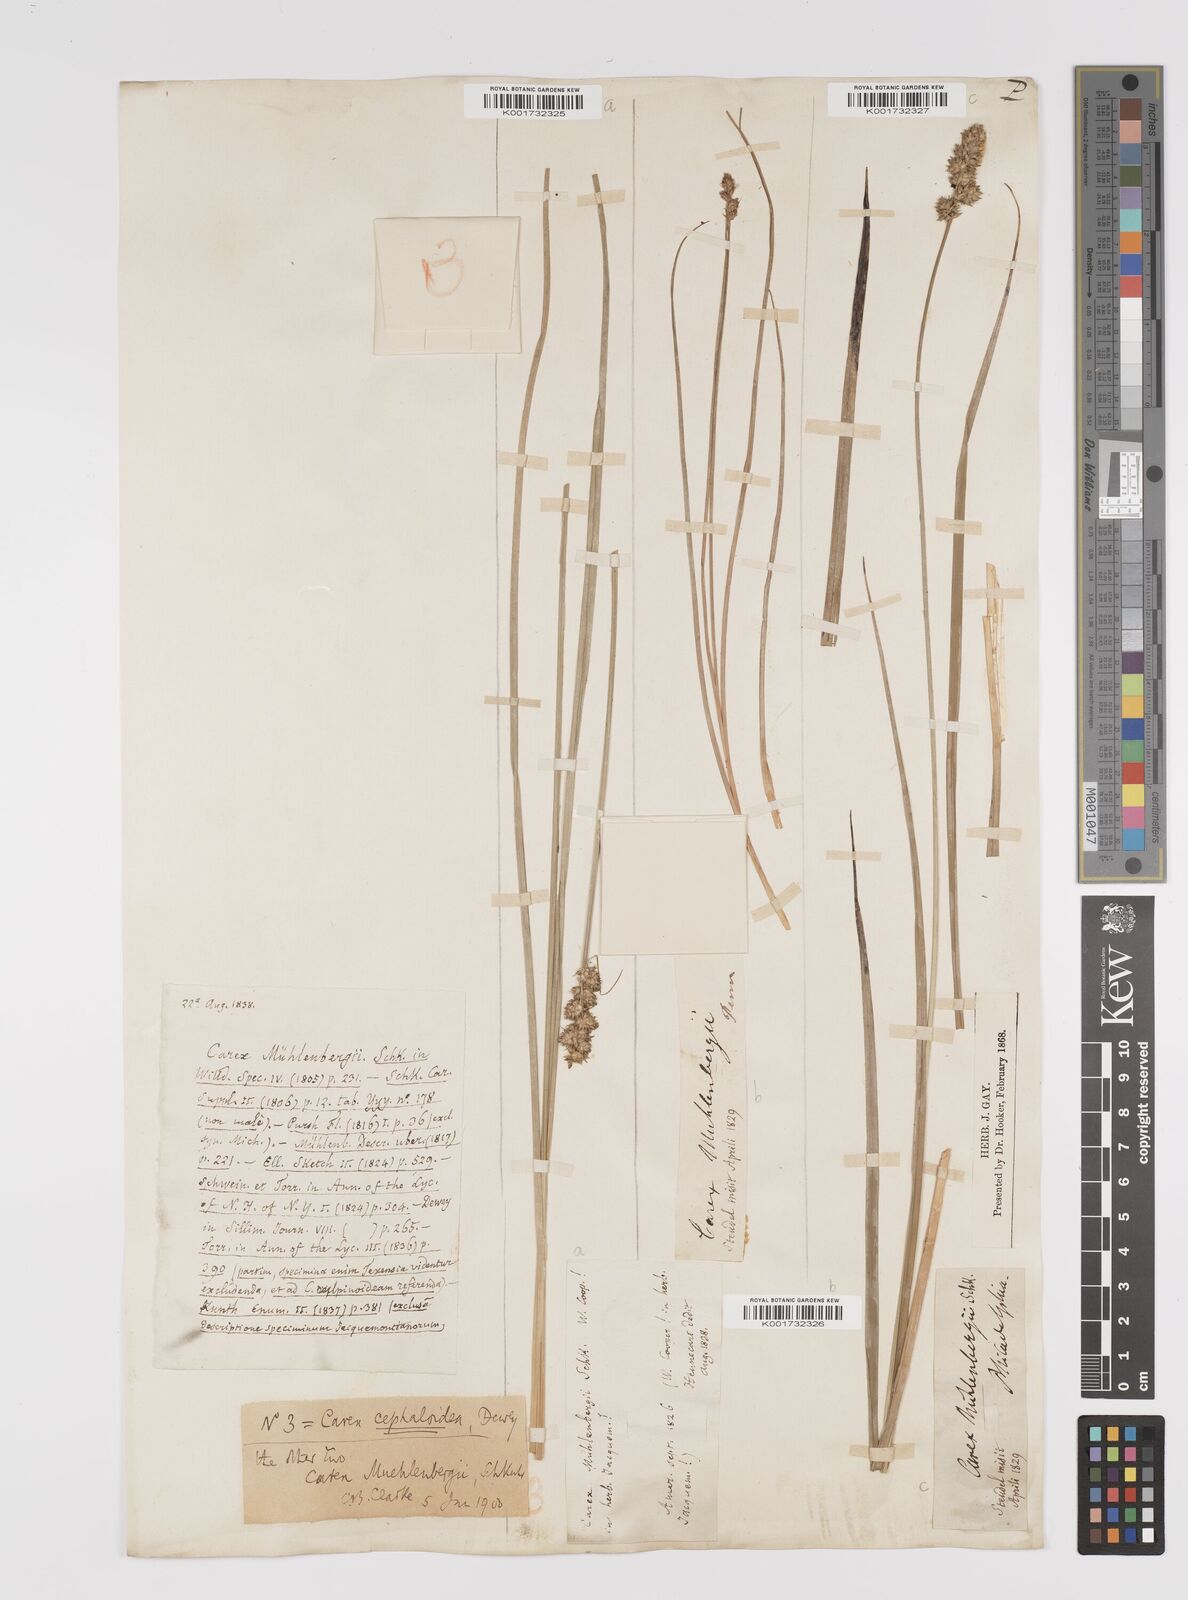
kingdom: Plantae
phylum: Tracheophyta
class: Liliopsida
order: Poales
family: Cyperaceae
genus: Carex
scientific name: Carex vulpinoidea
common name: American fox-sedge
